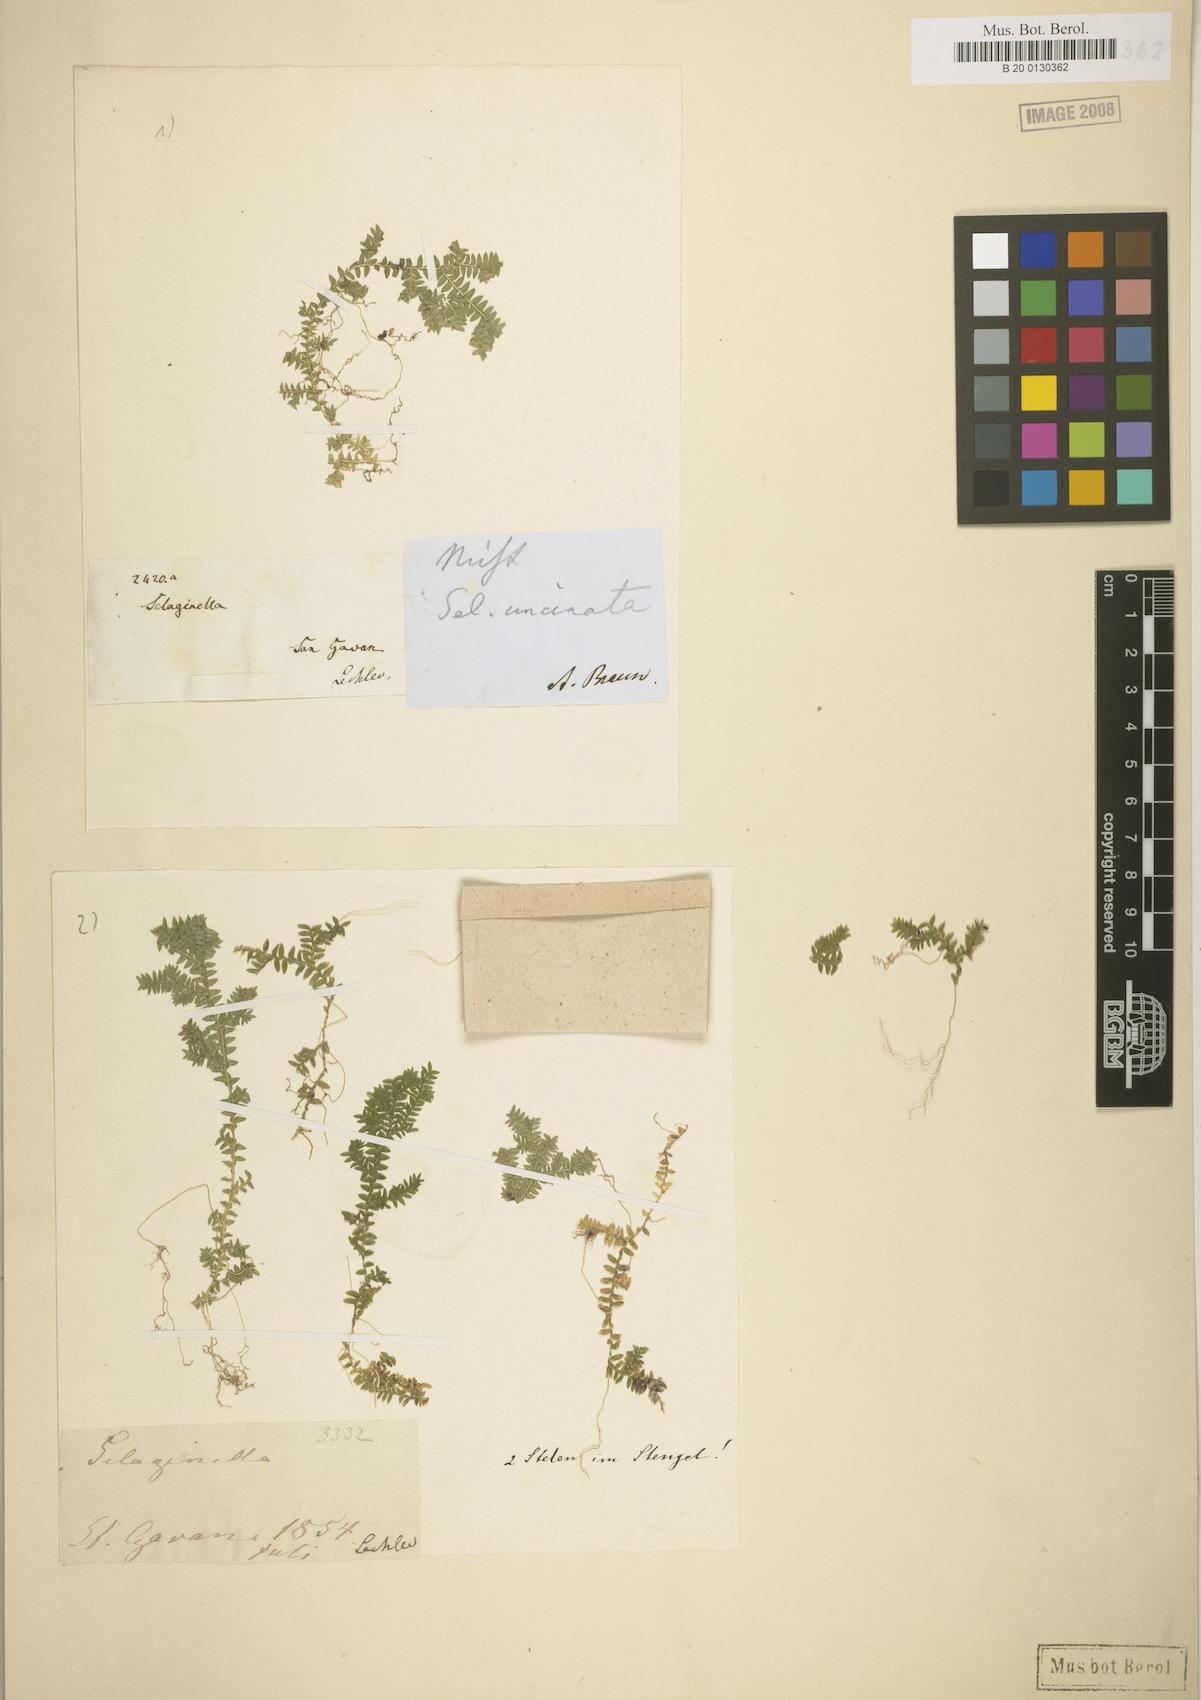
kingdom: Plantae
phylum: Tracheophyta
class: Lycopodiopsida
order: Selaginellales
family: Selaginellaceae
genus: Selaginella
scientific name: Selaginella horizontalis
